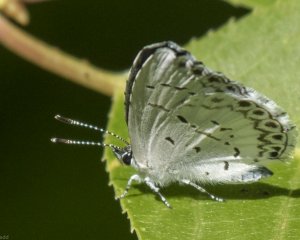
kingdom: Animalia
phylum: Arthropoda
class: Insecta
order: Lepidoptera
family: Lycaenidae
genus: Cyaniris
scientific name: Cyaniris neglecta
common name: Summer Azure
